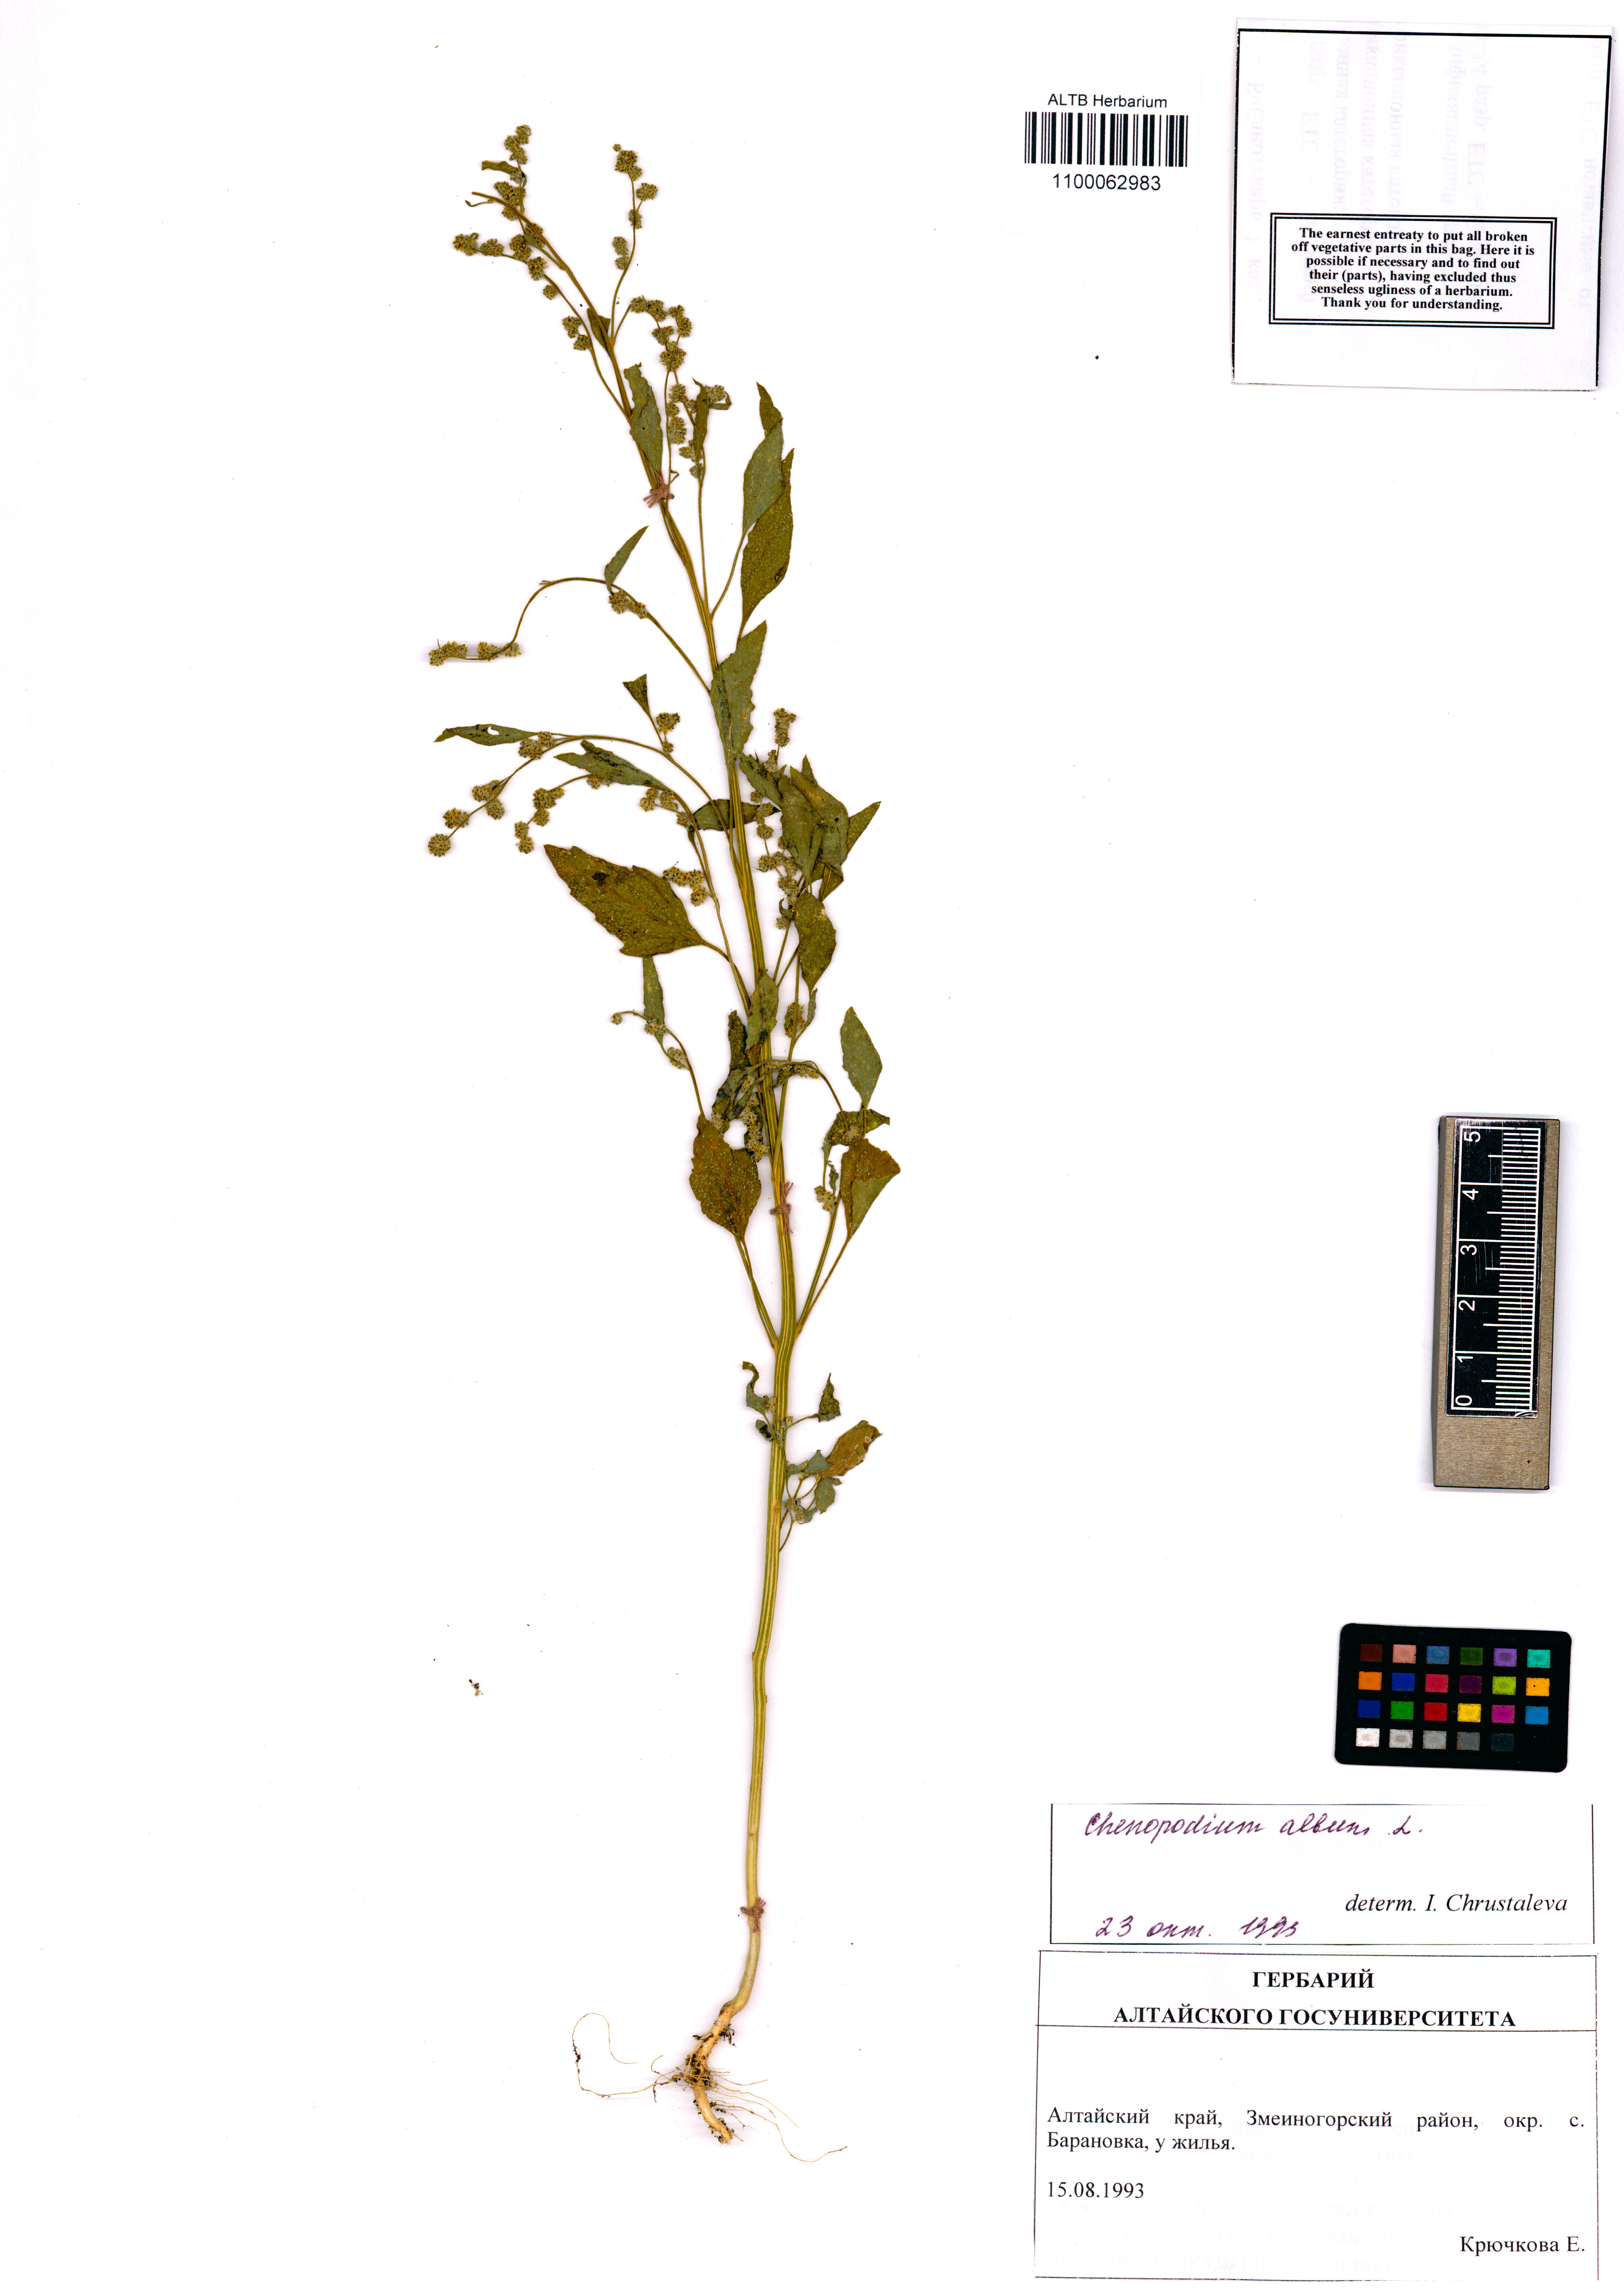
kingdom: Plantae
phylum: Tracheophyta
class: Magnoliopsida
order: Caryophyllales
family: Amaranthaceae
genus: Chenopodium
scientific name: Chenopodium album
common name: Fat-hen
